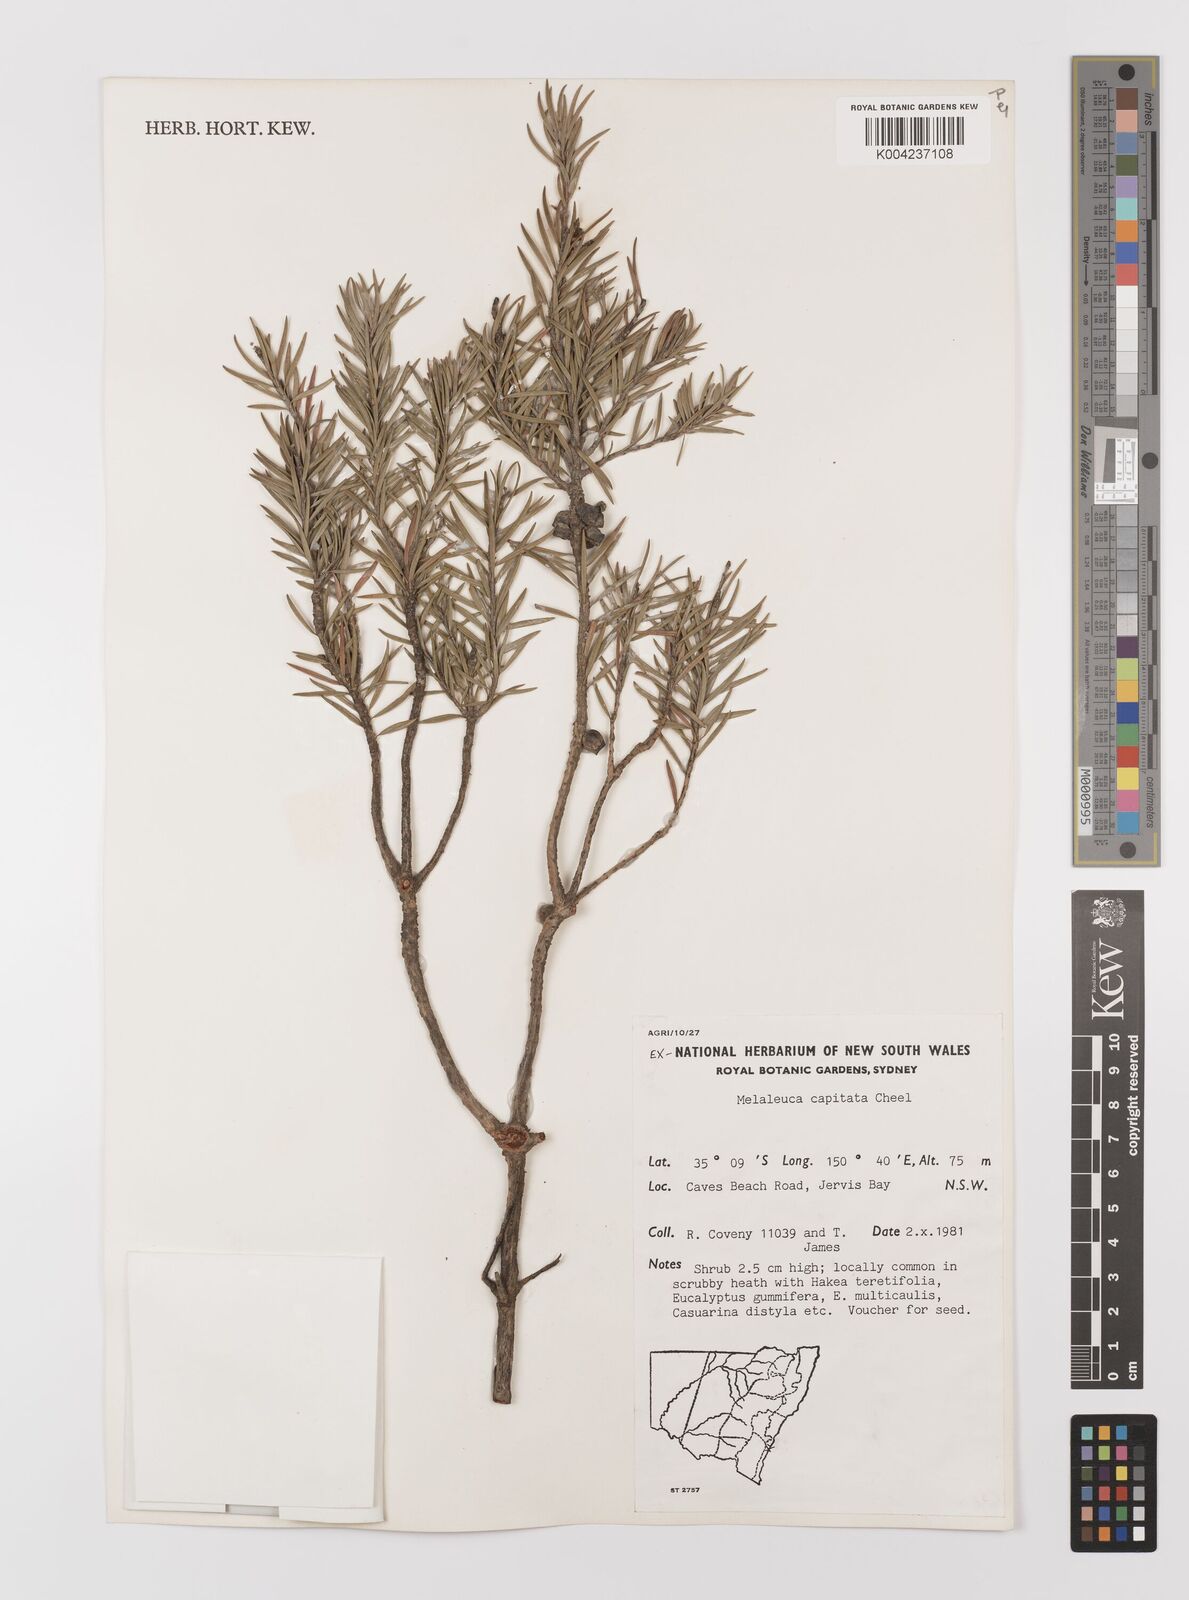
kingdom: Plantae
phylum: Tracheophyta
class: Magnoliopsida
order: Myrtales
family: Myrtaceae
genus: Melaleuca
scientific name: Melaleuca capitata
